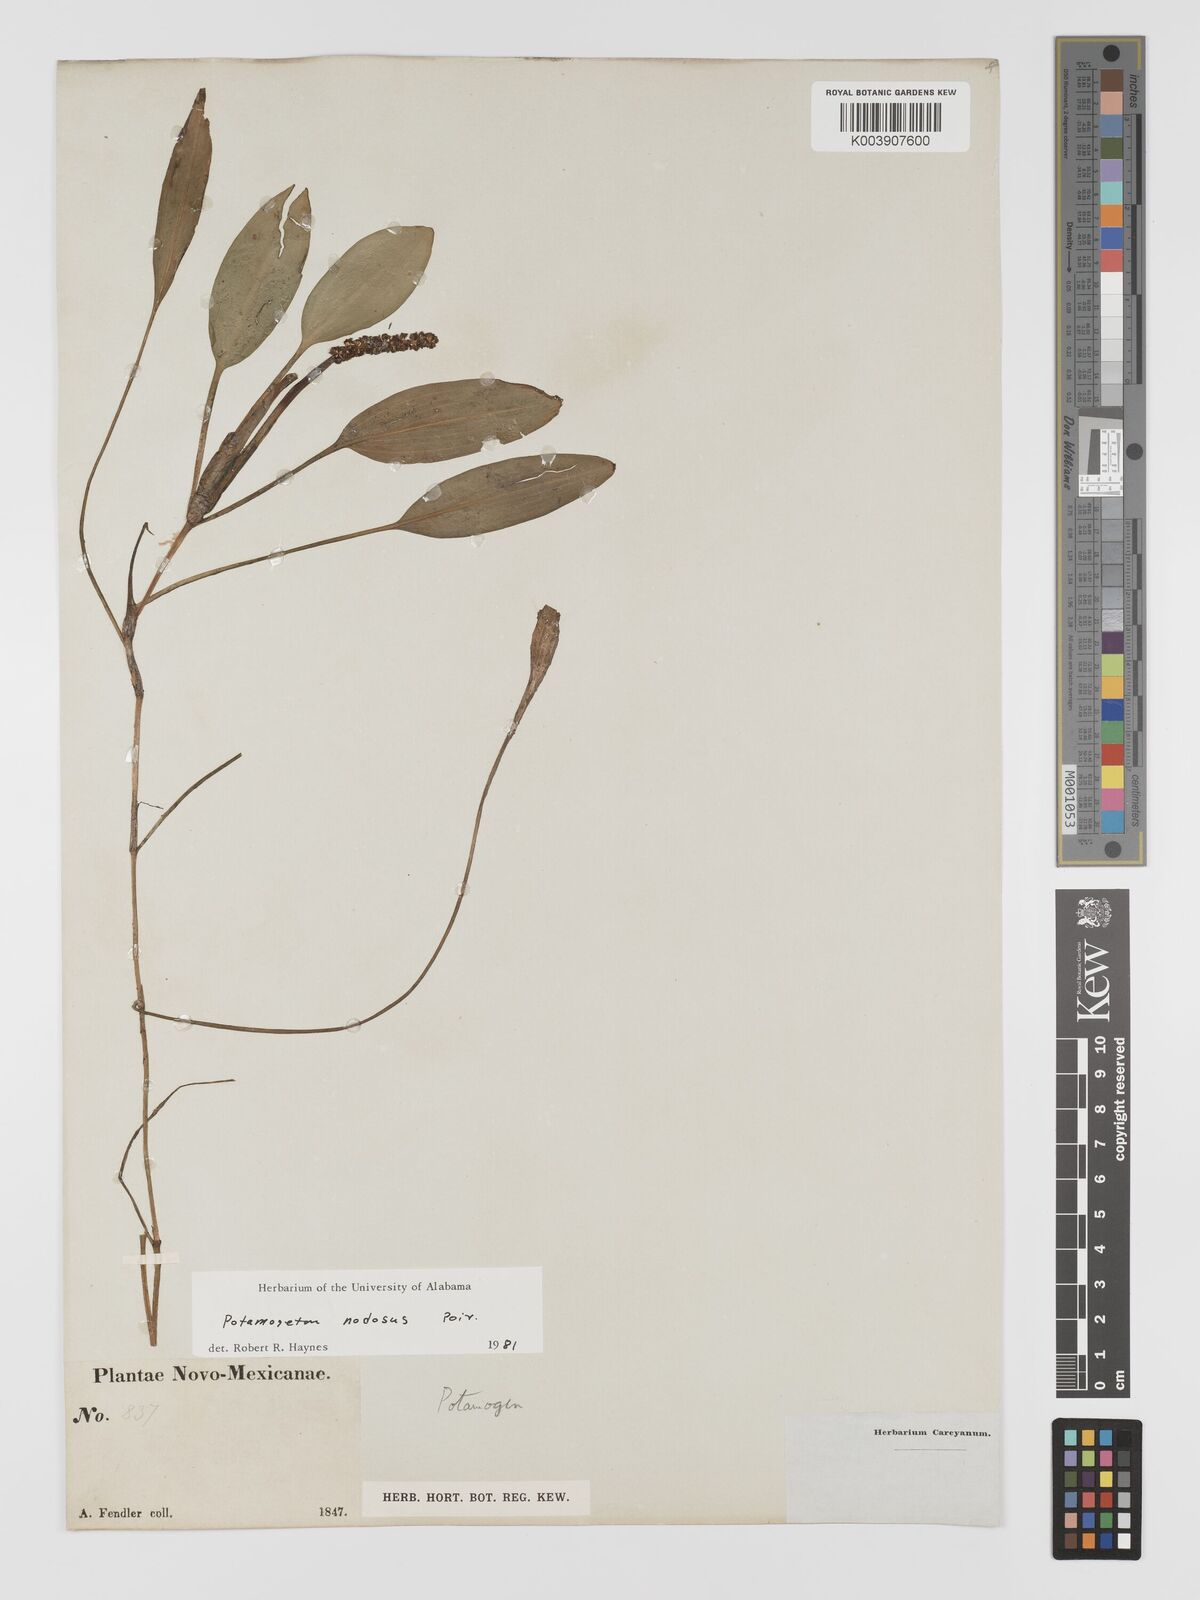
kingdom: Plantae
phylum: Tracheophyta
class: Liliopsida
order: Alismatales
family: Potamogetonaceae
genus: Potamogeton
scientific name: Potamogeton nodosus
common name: Loddon pondweed
